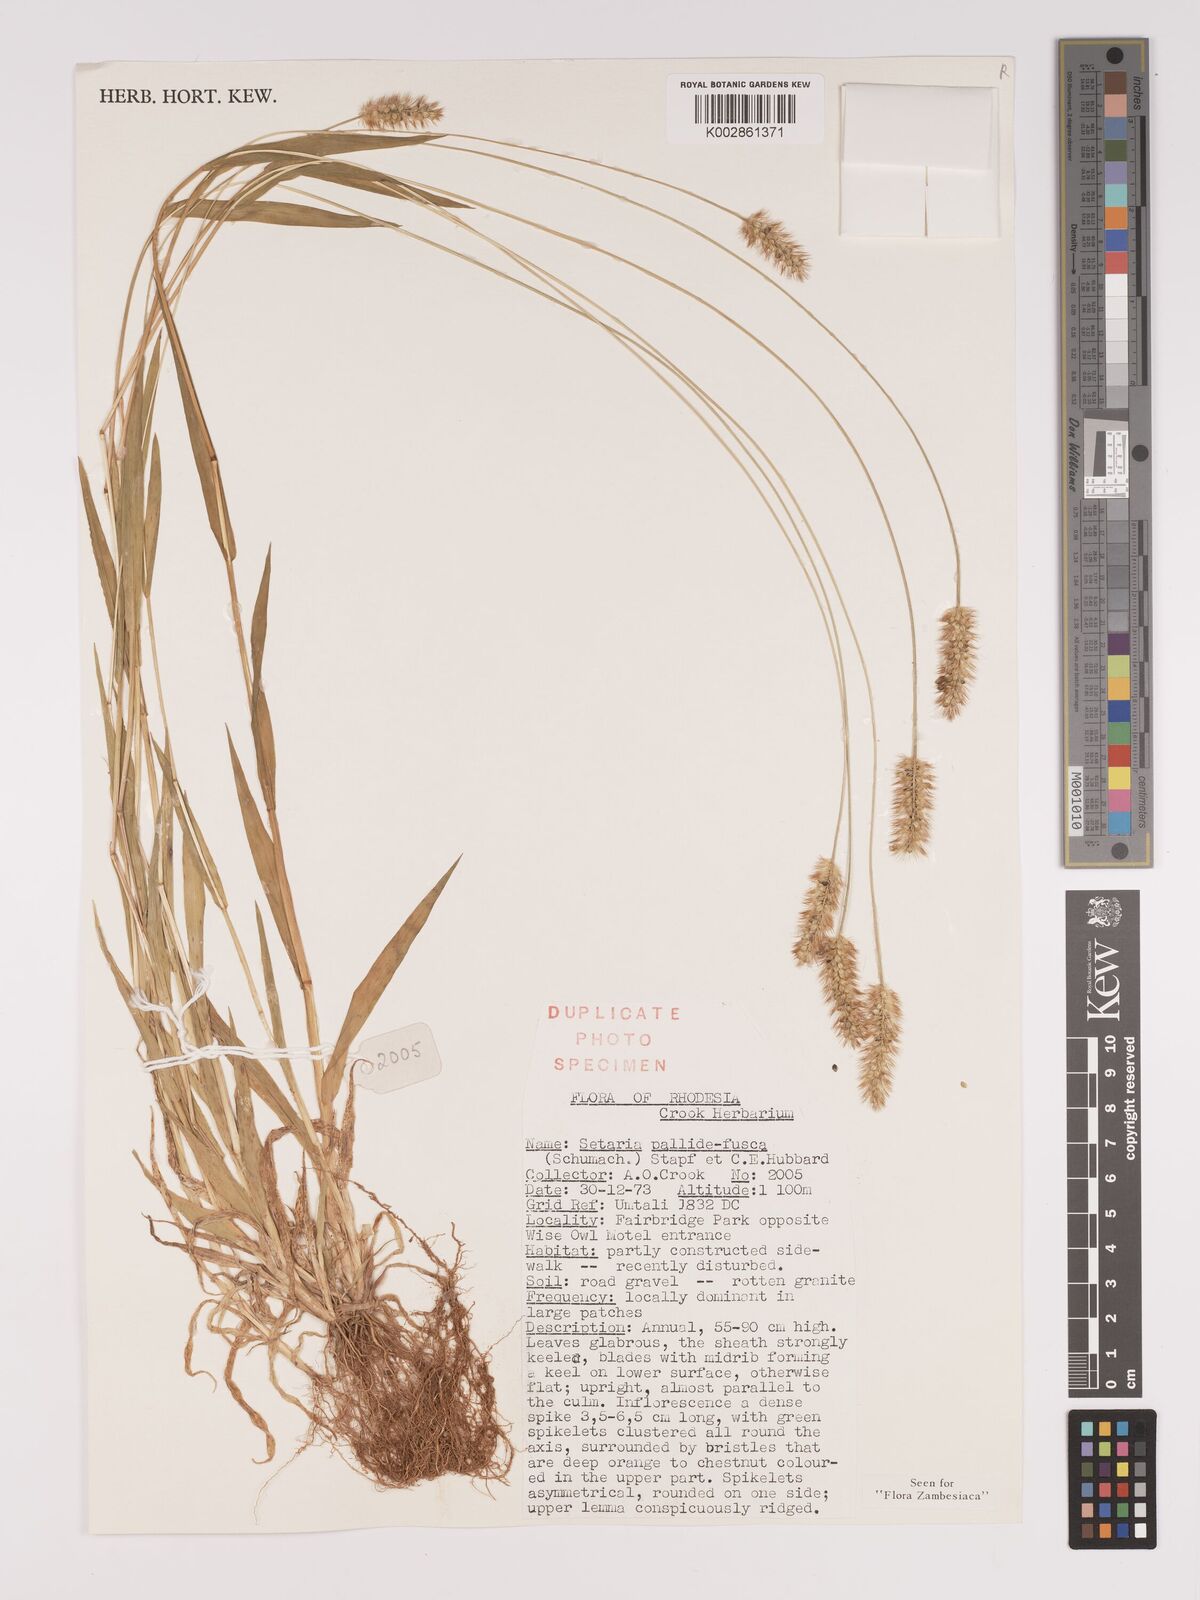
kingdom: Plantae
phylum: Tracheophyta
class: Liliopsida
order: Poales
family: Poaceae
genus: Setaria
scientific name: Setaria pumila
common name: Yellow bristle-grass
